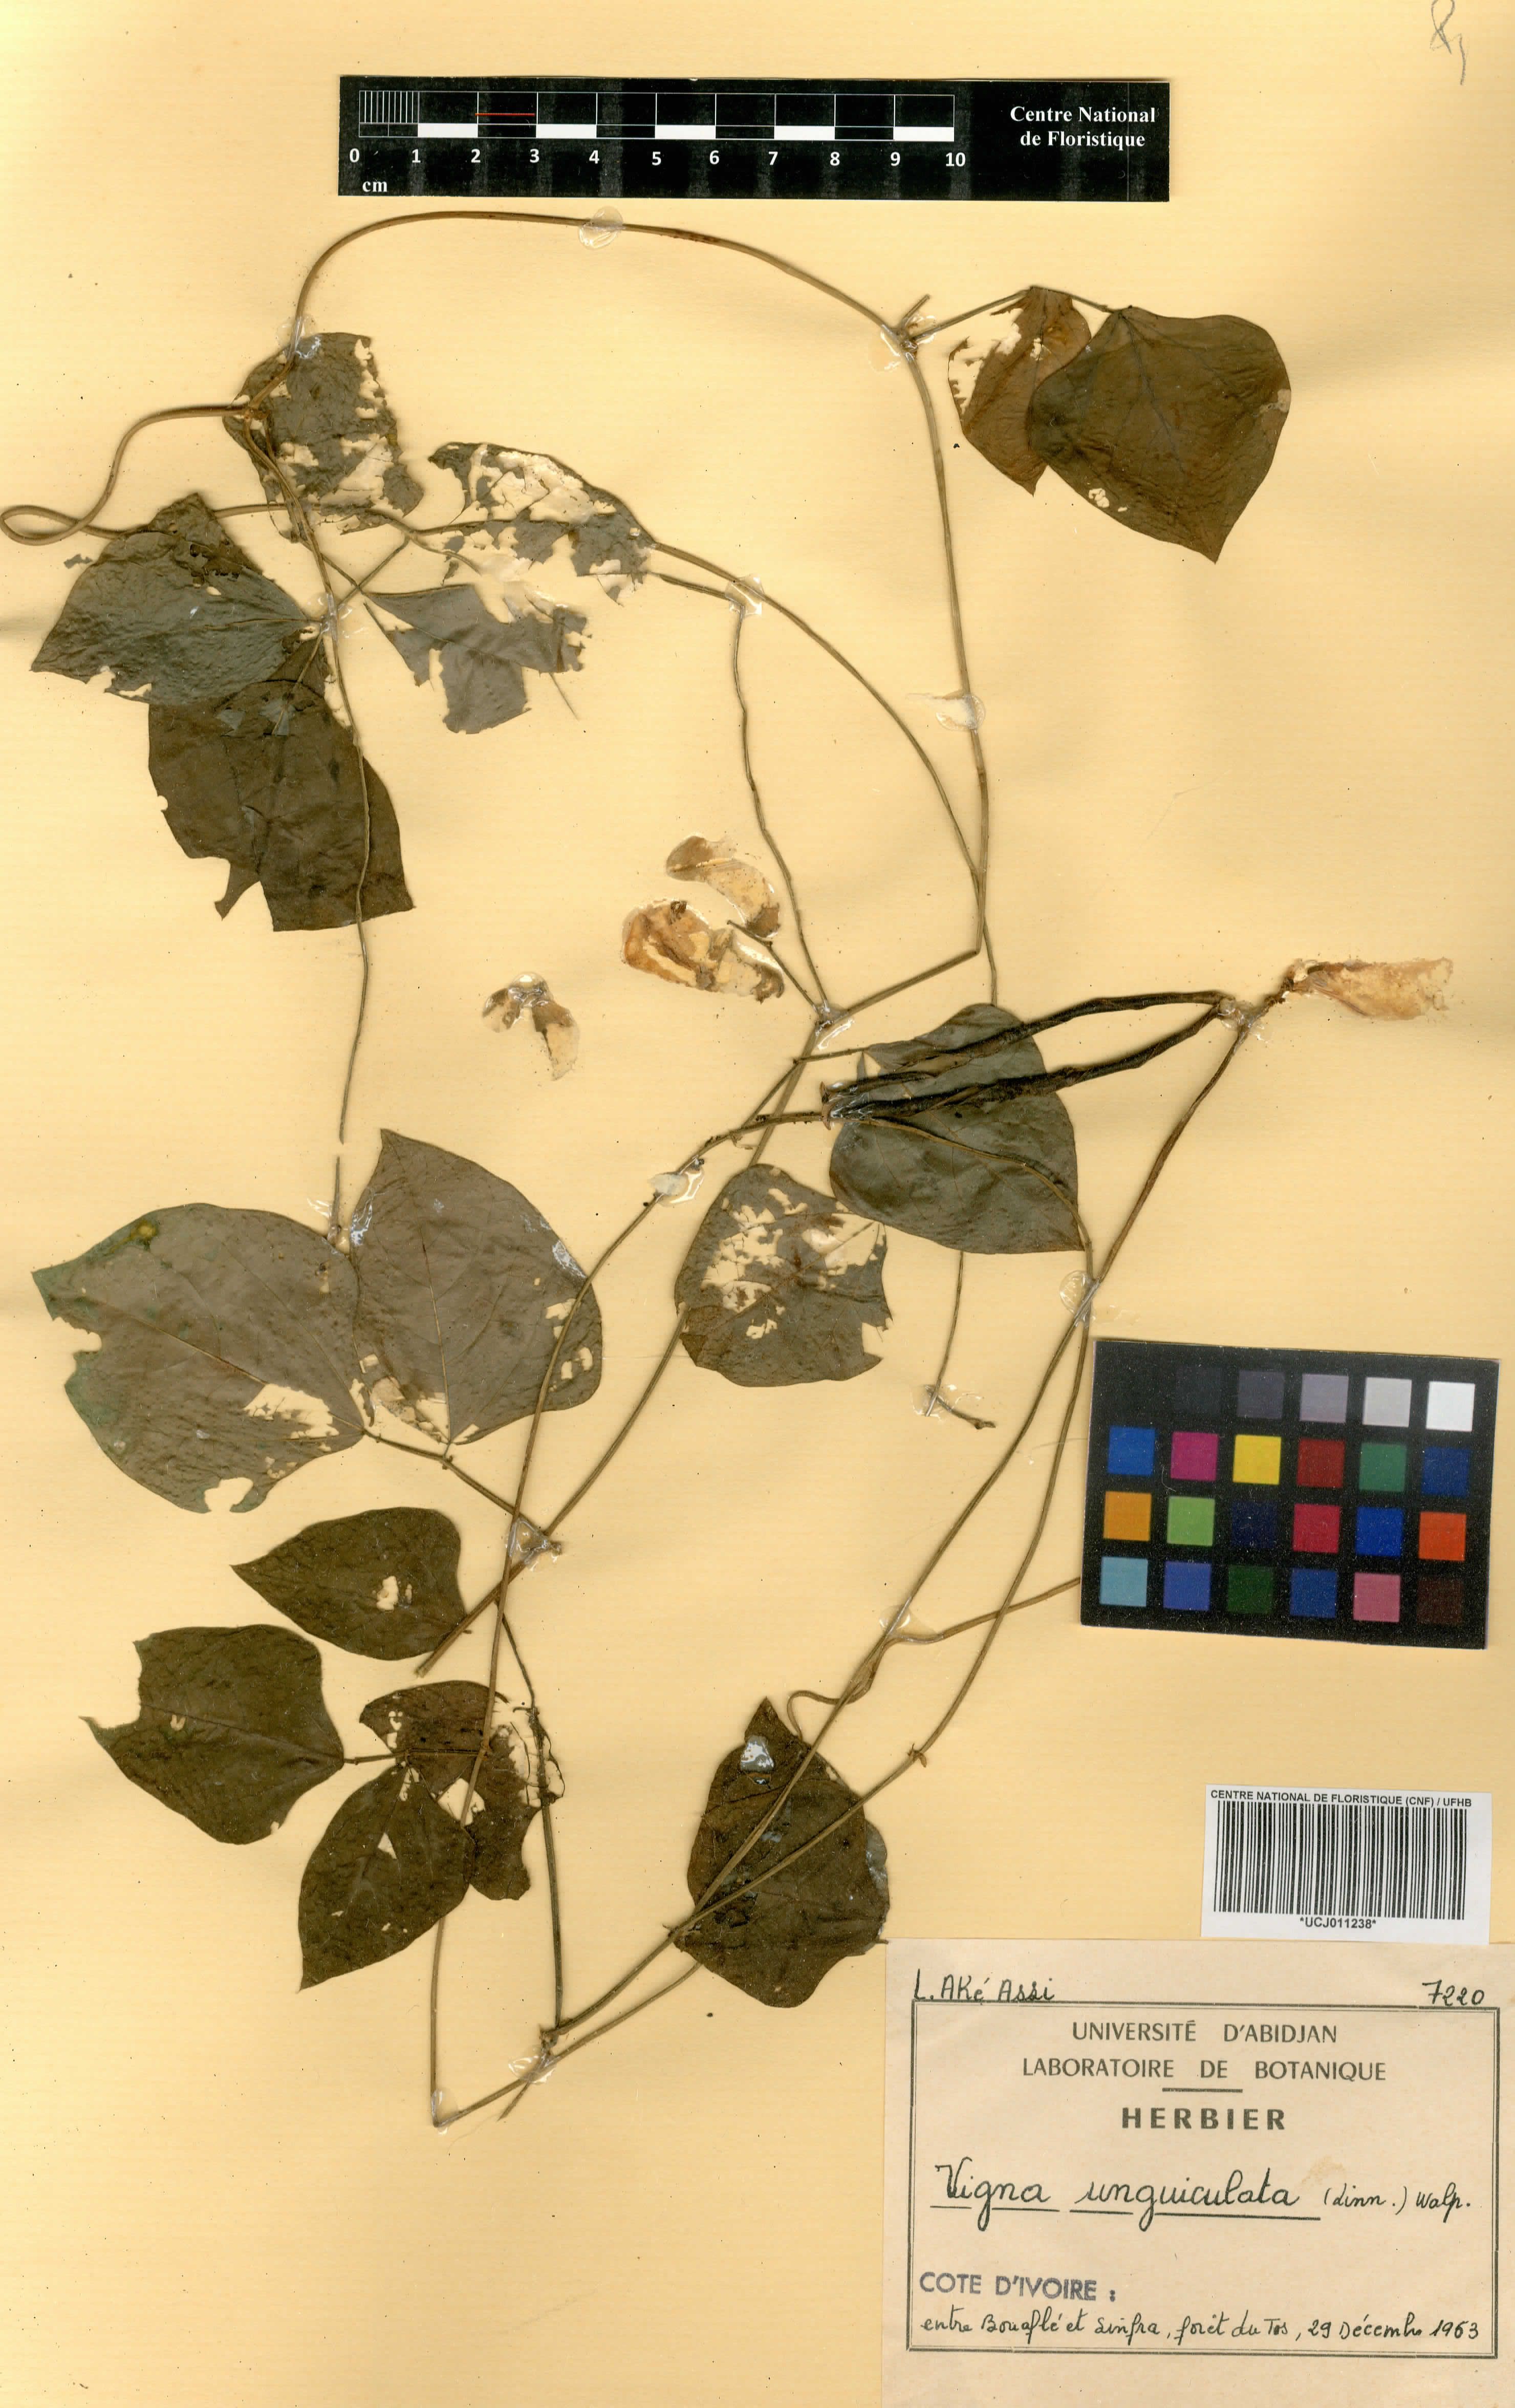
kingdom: Plantae
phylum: Tracheophyta
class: Magnoliopsida
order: Fabales
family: Fabaceae
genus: Vigna
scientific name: Vigna unguiculata
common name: Cowpea
